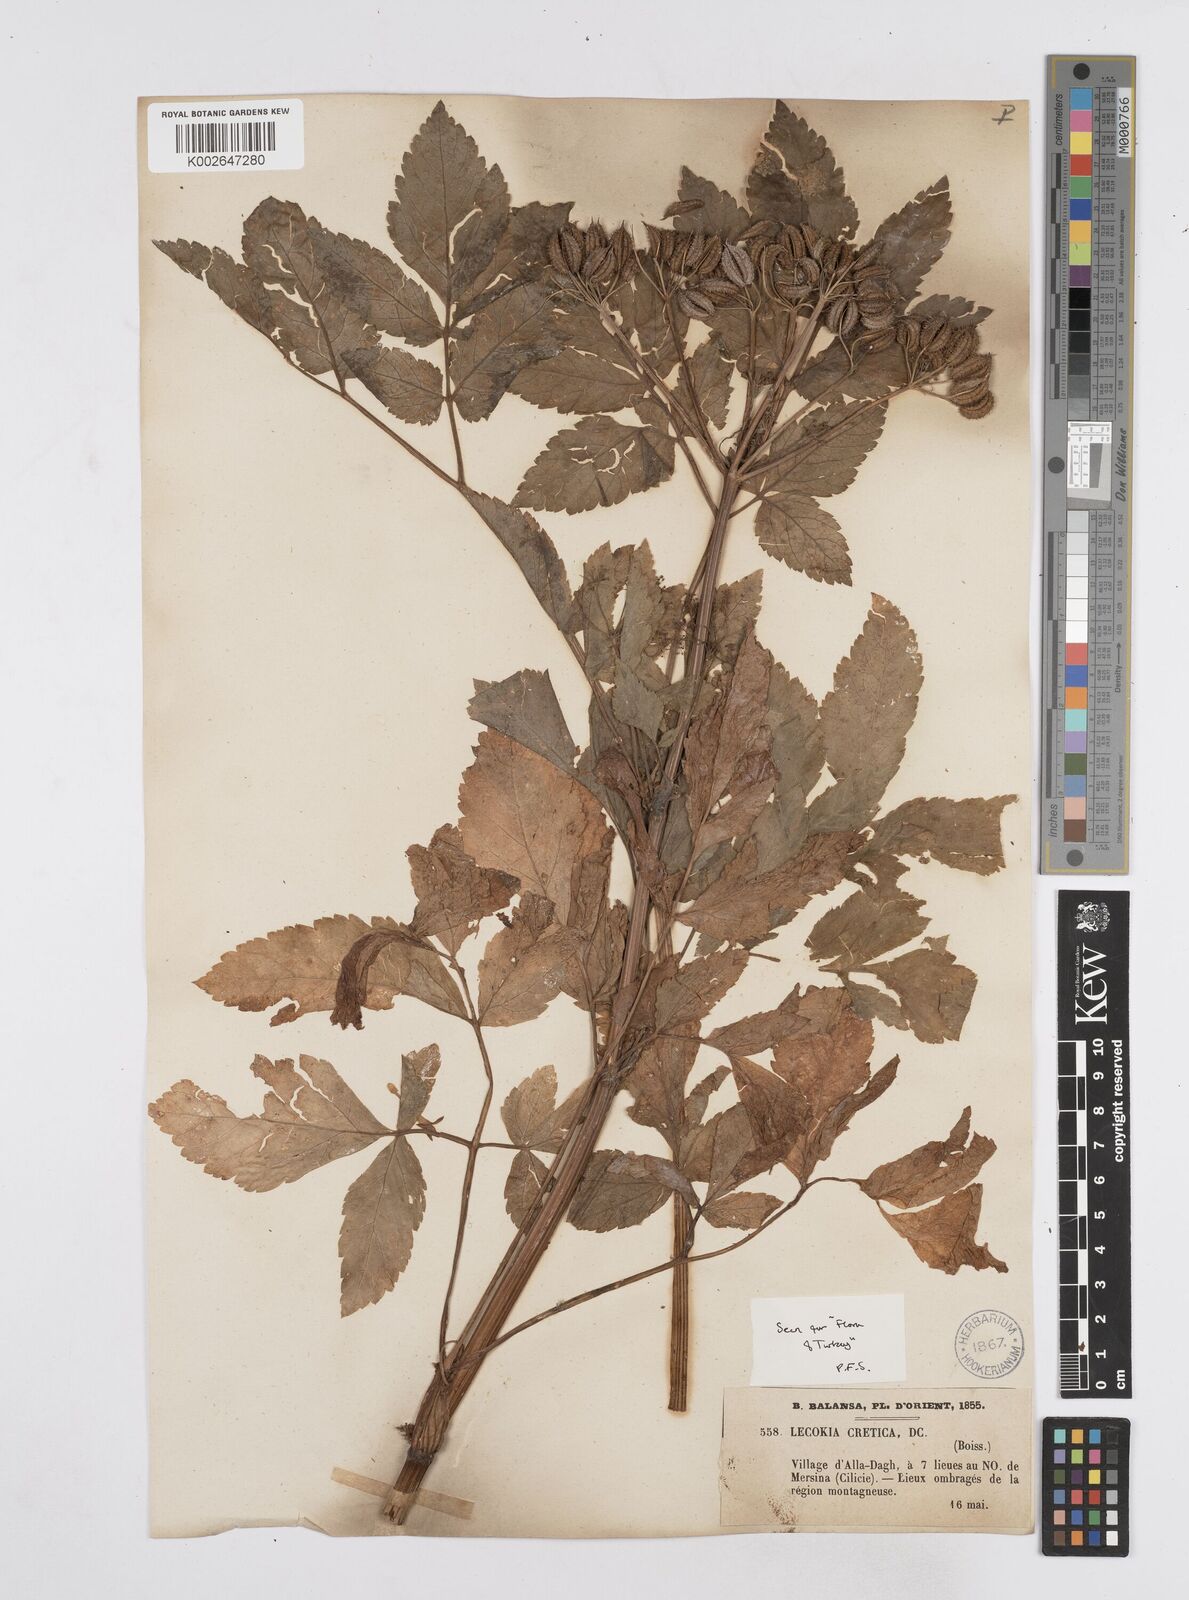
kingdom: Plantae
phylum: Tracheophyta
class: Magnoliopsida
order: Apiales
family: Apiaceae
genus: Lecokia
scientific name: Lecokia cretica
